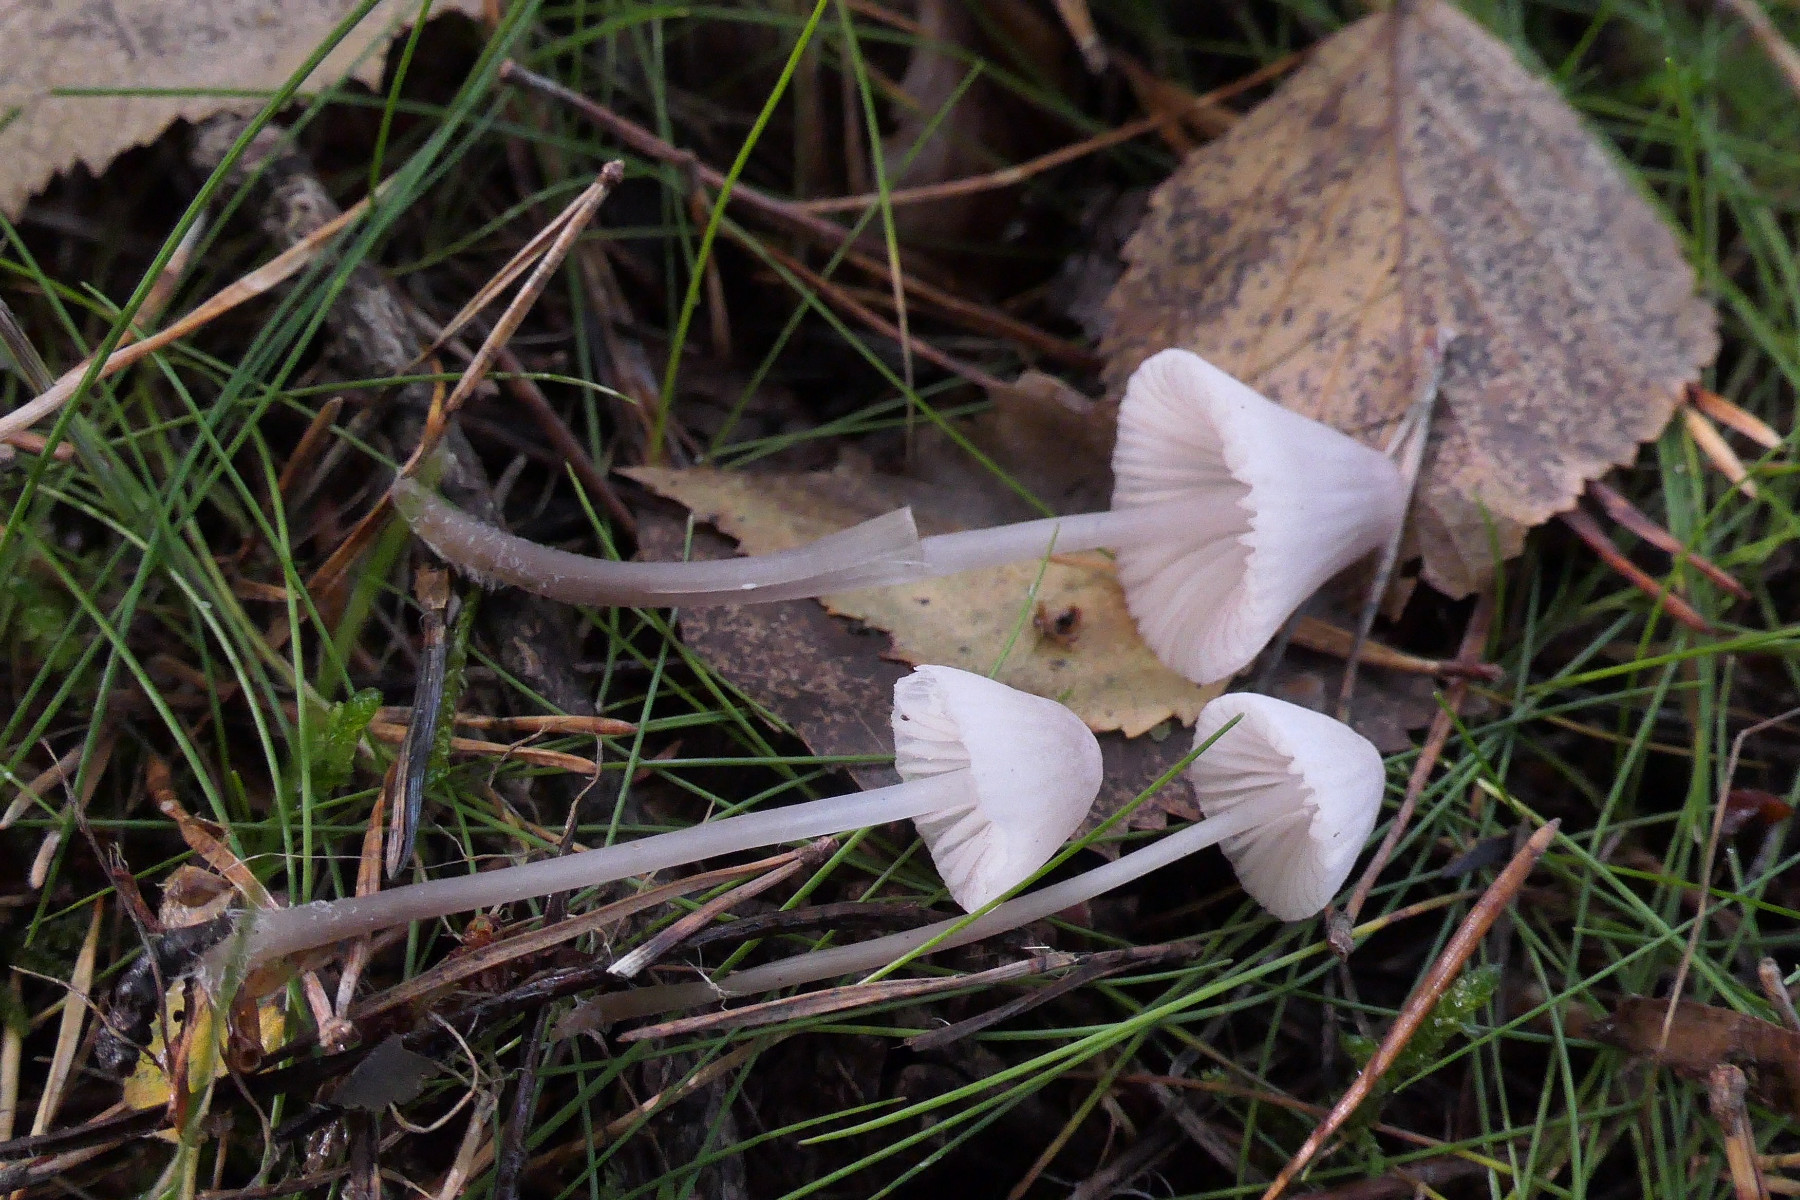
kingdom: Fungi
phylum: Basidiomycota
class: Agaricomycetes
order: Agaricales
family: Mycenaceae
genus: Mycena
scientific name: Mycena capillaripes
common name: nåle-huesvamp
